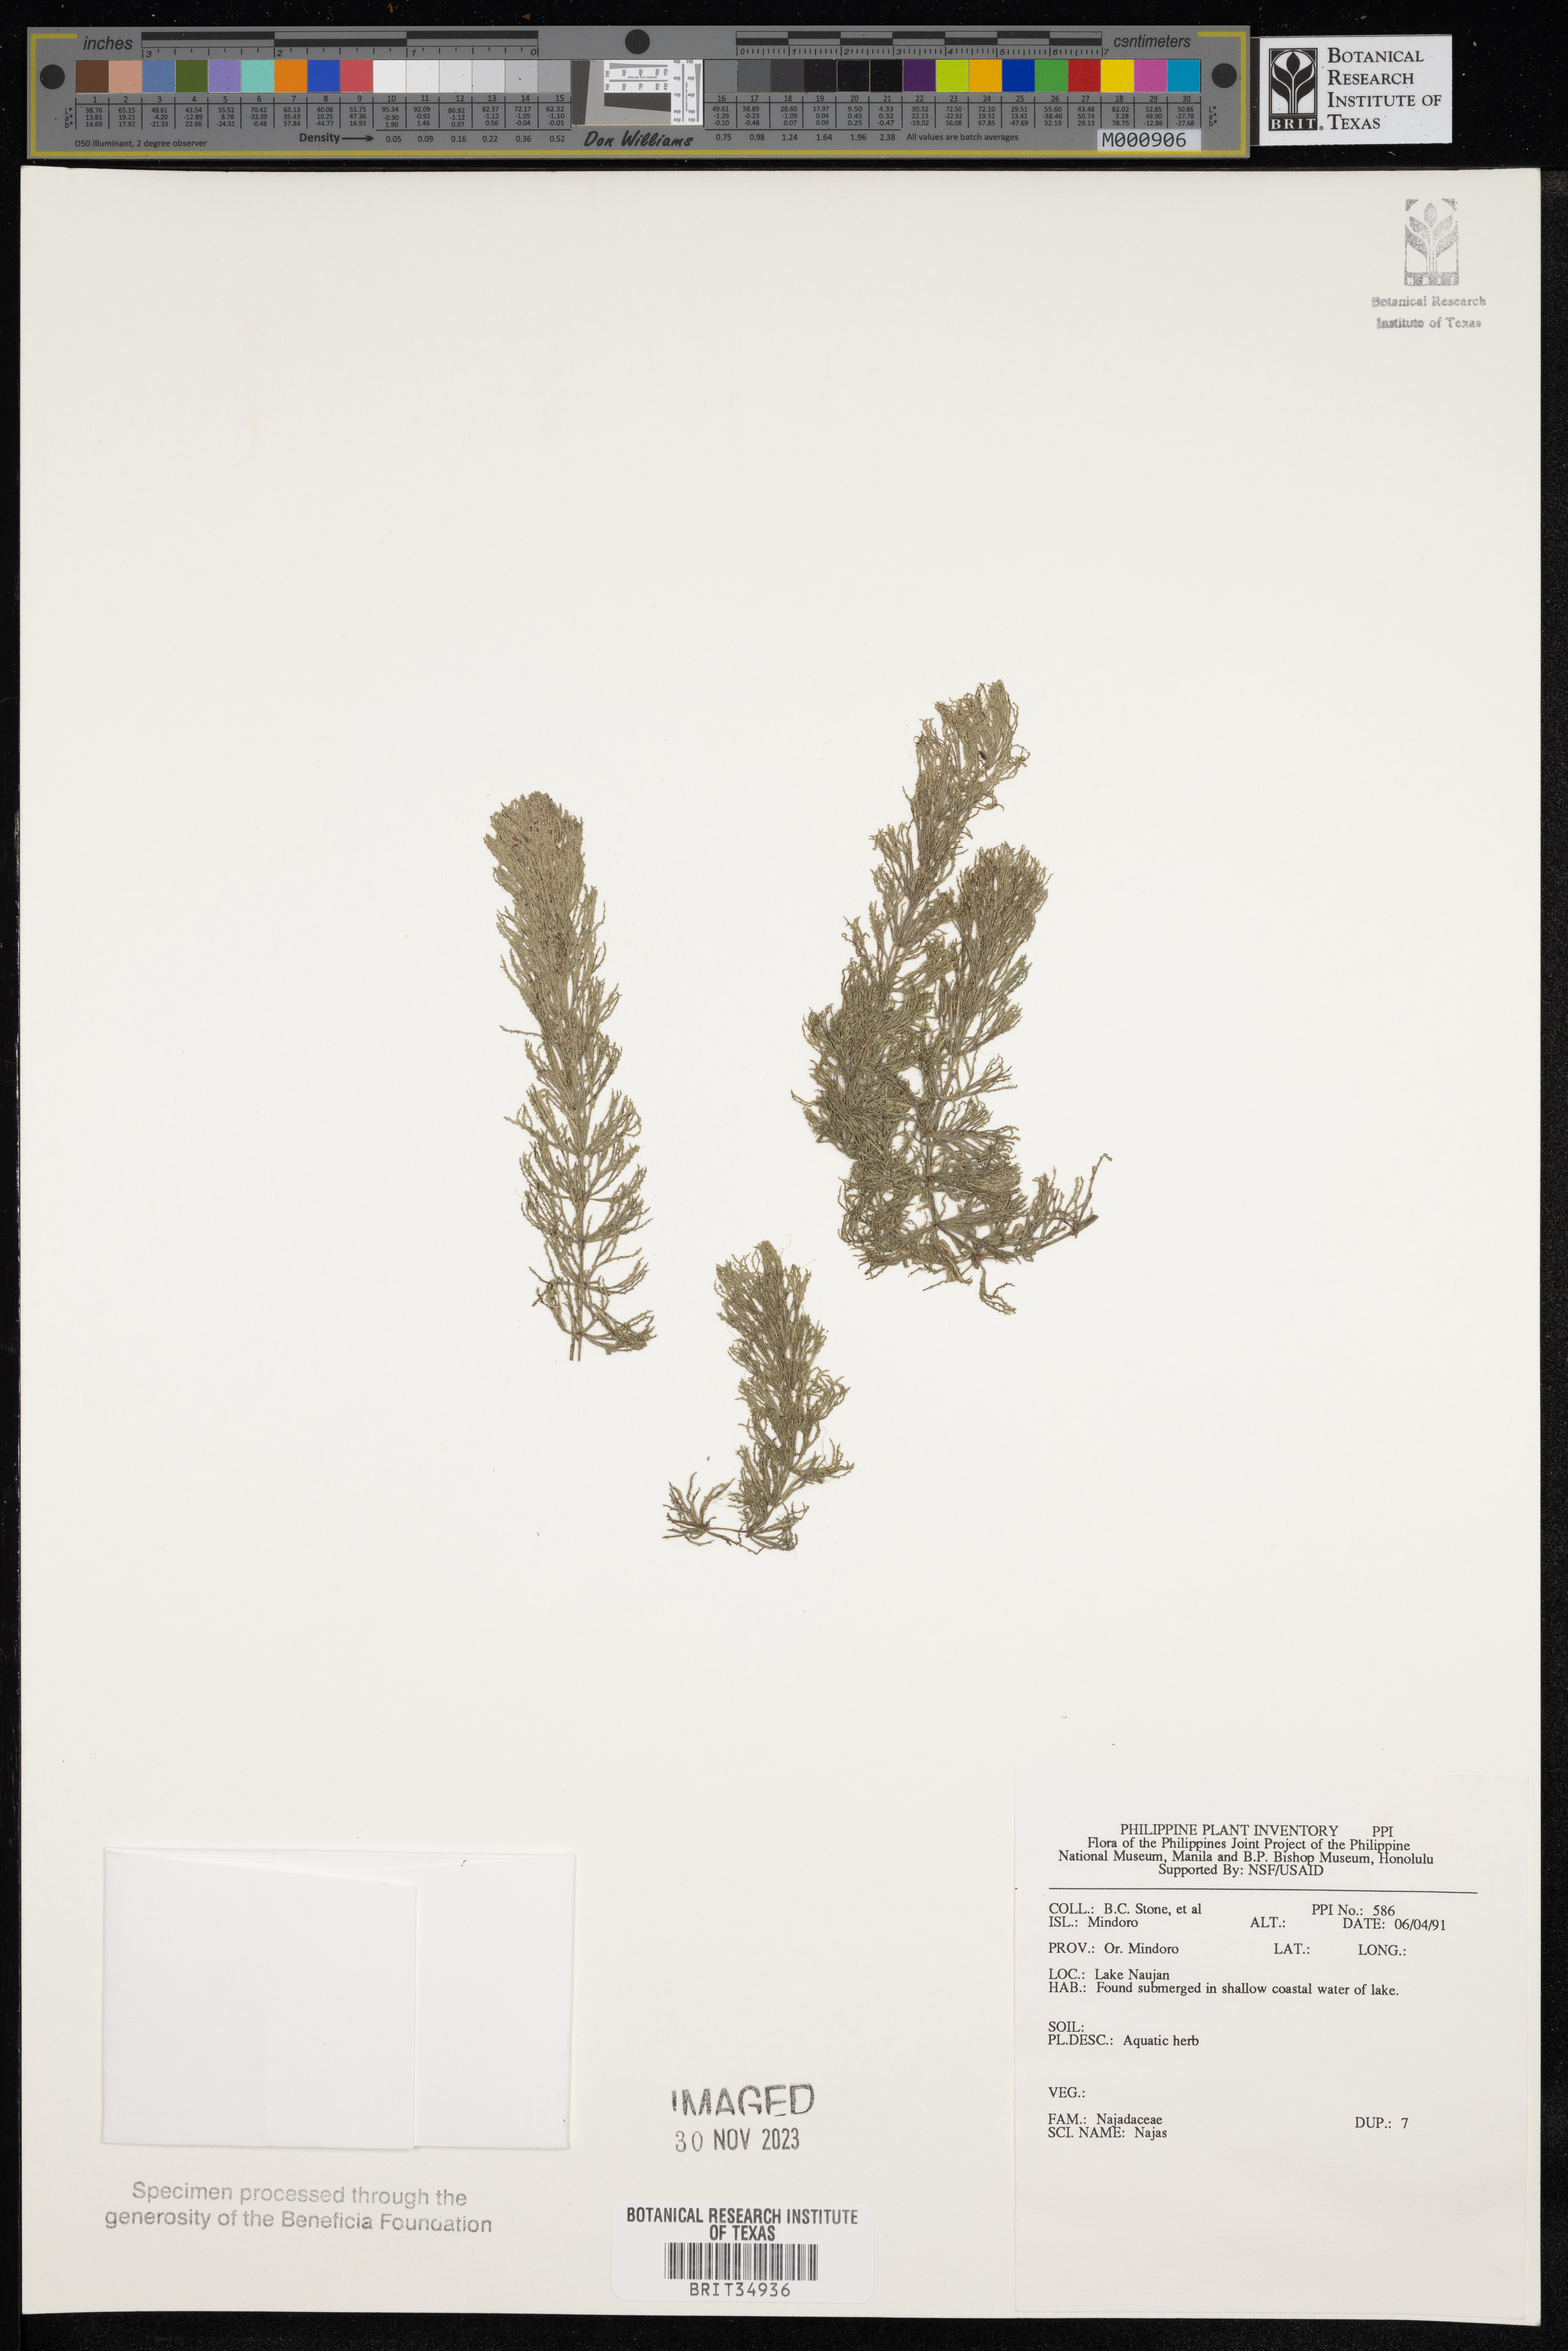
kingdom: Plantae
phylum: Tracheophyta
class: Liliopsida
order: Alismatales
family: Hydrocharitaceae
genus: Najas
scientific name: Najas
